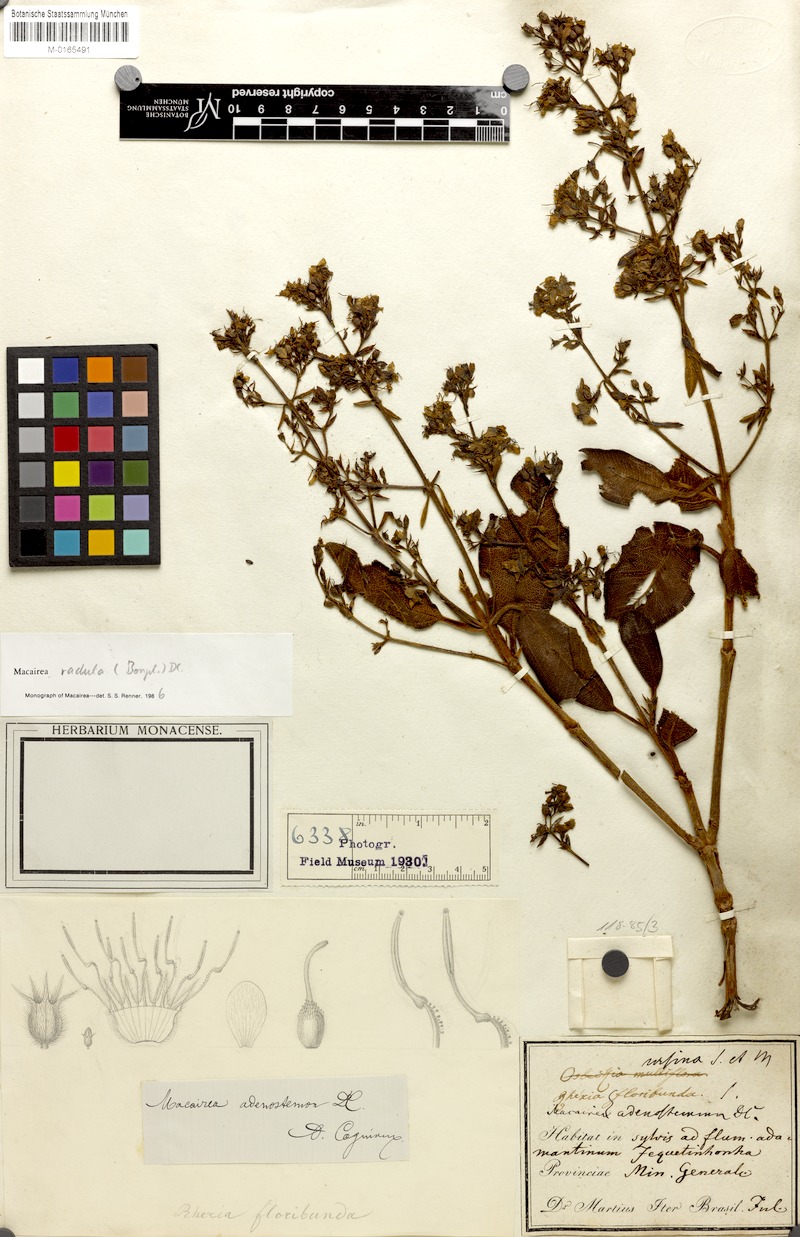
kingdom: Plantae
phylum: Tracheophyta
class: Magnoliopsida
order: Myrtales
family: Melastomataceae
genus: Macairea
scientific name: Macairea radula
